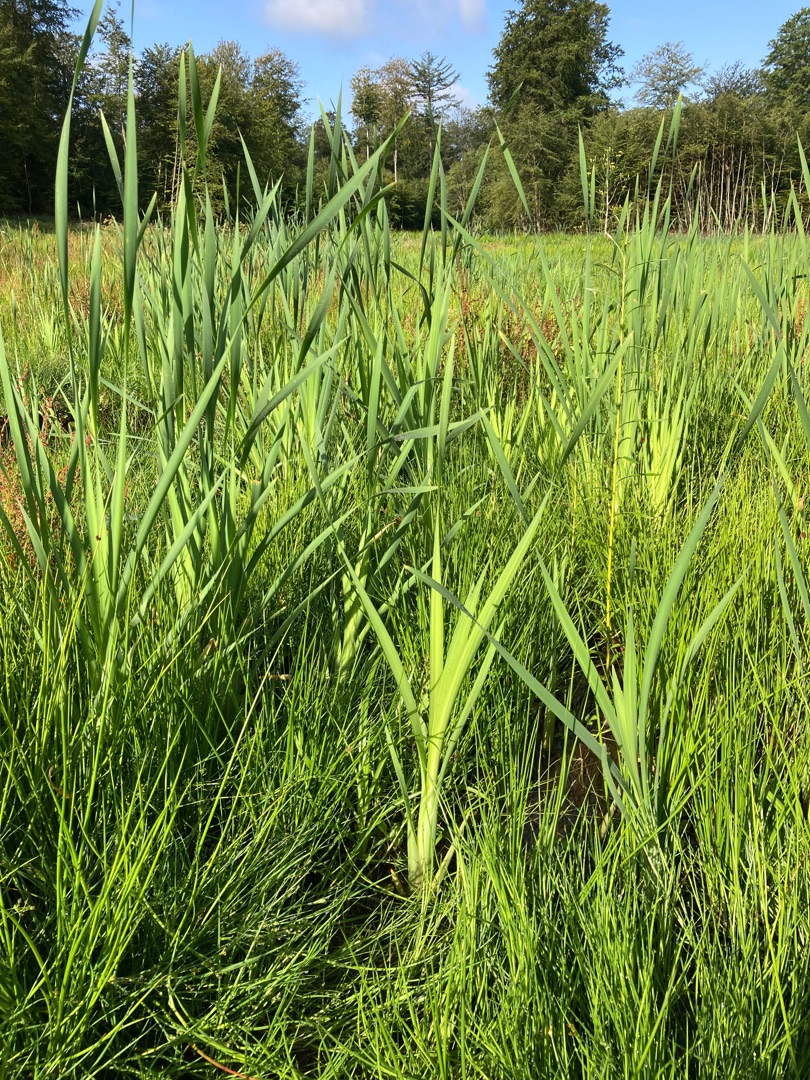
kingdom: Plantae
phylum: Tracheophyta
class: Liliopsida
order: Poales
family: Typhaceae
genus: Typha
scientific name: Typha latifolia
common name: Bredbladet dunhammer
